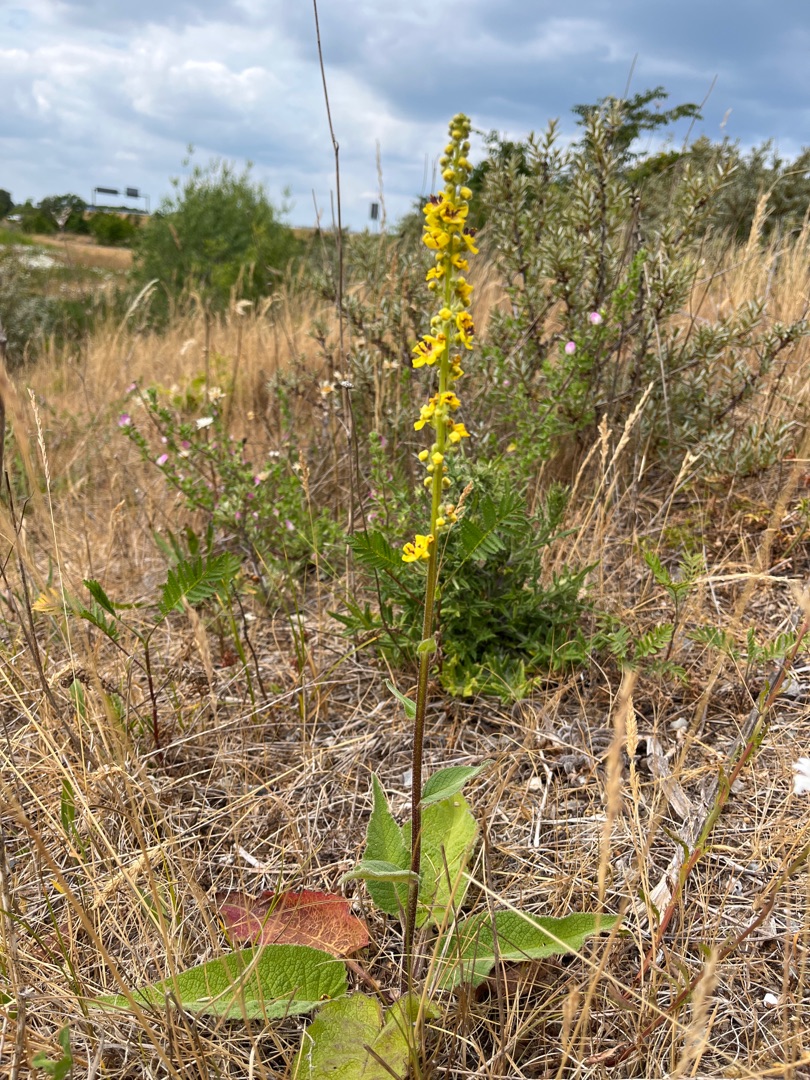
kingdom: Plantae
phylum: Tracheophyta
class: Magnoliopsida
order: Lamiales
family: Scrophulariaceae
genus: Verbascum
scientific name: Verbascum nigrum
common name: Mørk kongelys
